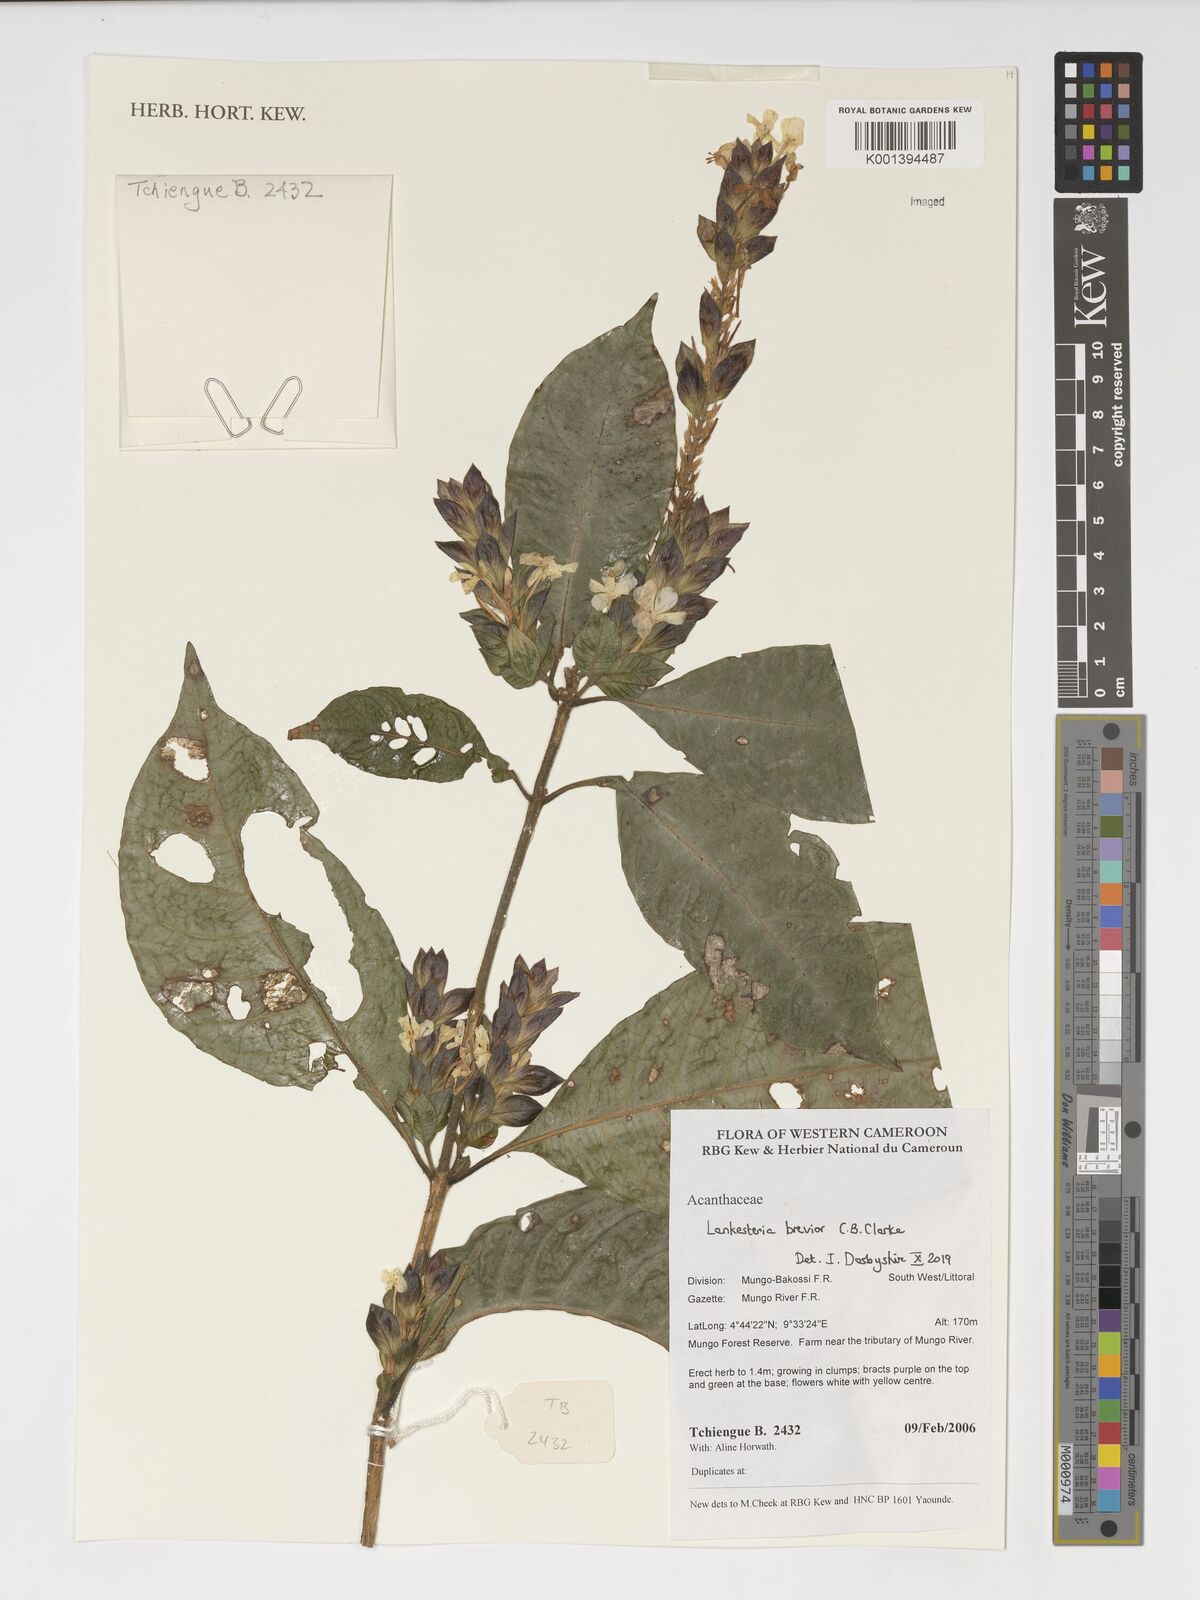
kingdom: Plantae
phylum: Tracheophyta
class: Magnoliopsida
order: Lamiales
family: Acanthaceae
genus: Lankesteria
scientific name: Lankesteria brevior
